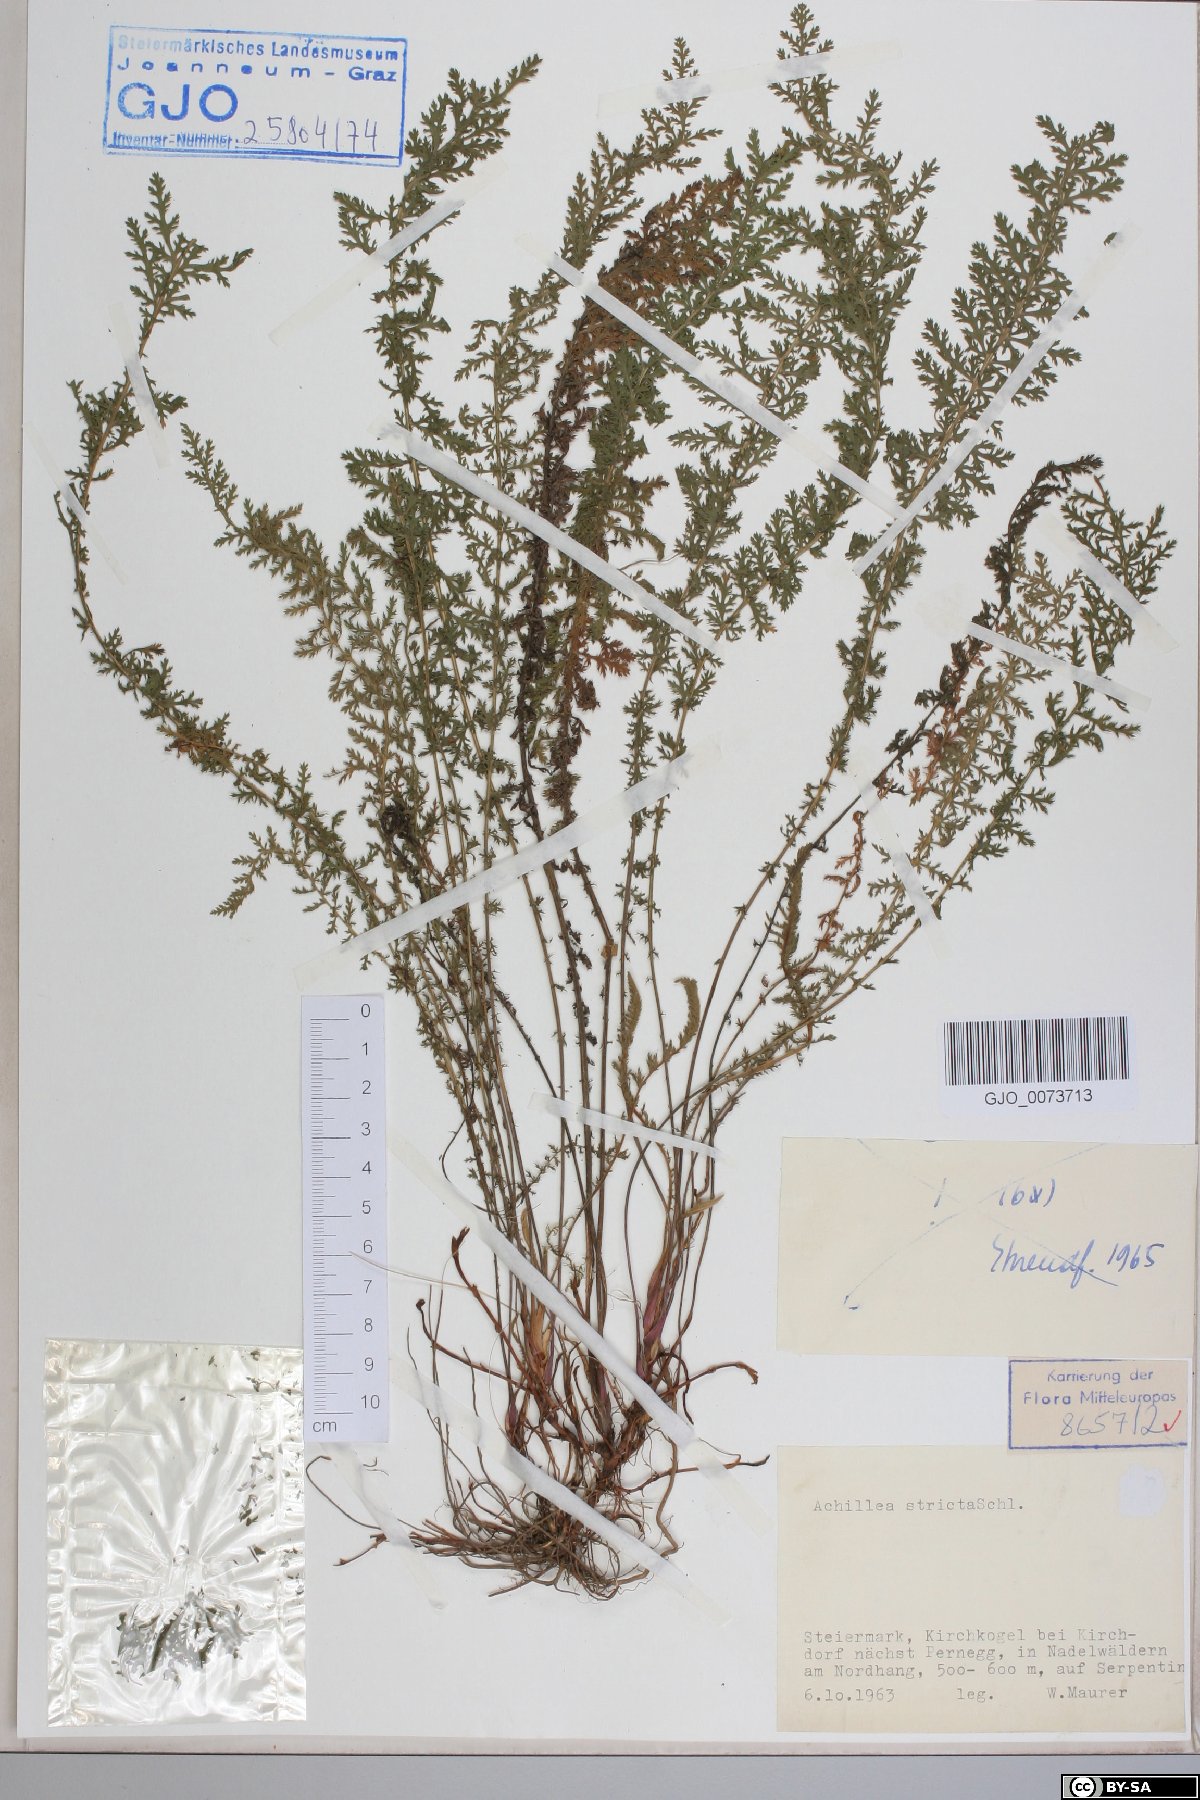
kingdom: Plantae
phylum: Tracheophyta
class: Magnoliopsida
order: Asterales
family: Asteraceae
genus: Achillea
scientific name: Achillea distans
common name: Tall yarrow
